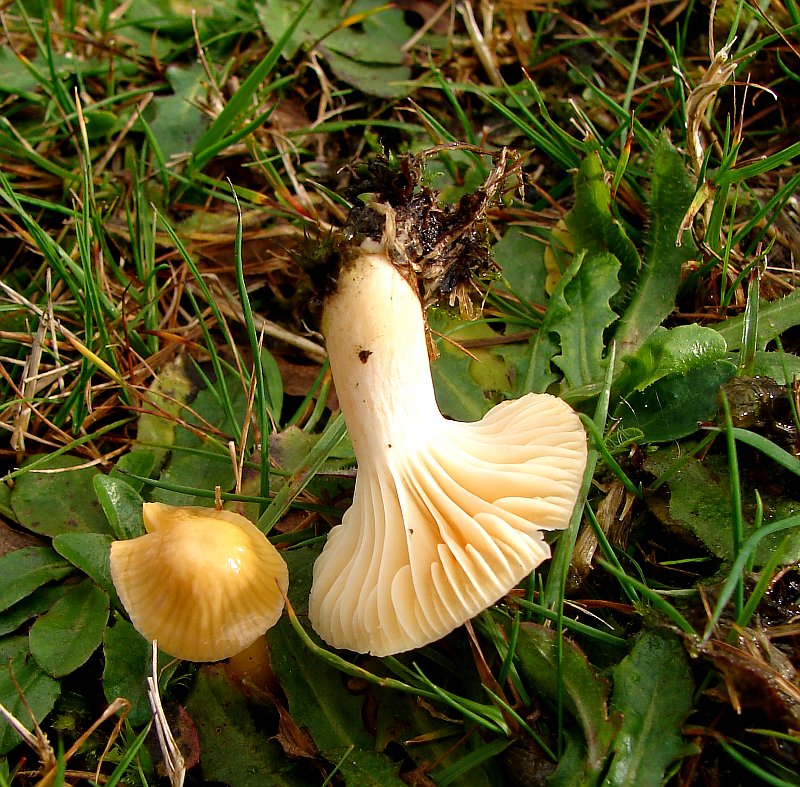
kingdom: Fungi
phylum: Basidiomycota
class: Agaricomycetes
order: Agaricales
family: Hygrophoraceae
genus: Cuphophyllus
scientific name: Cuphophyllus pratensis
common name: eng-vokshat
